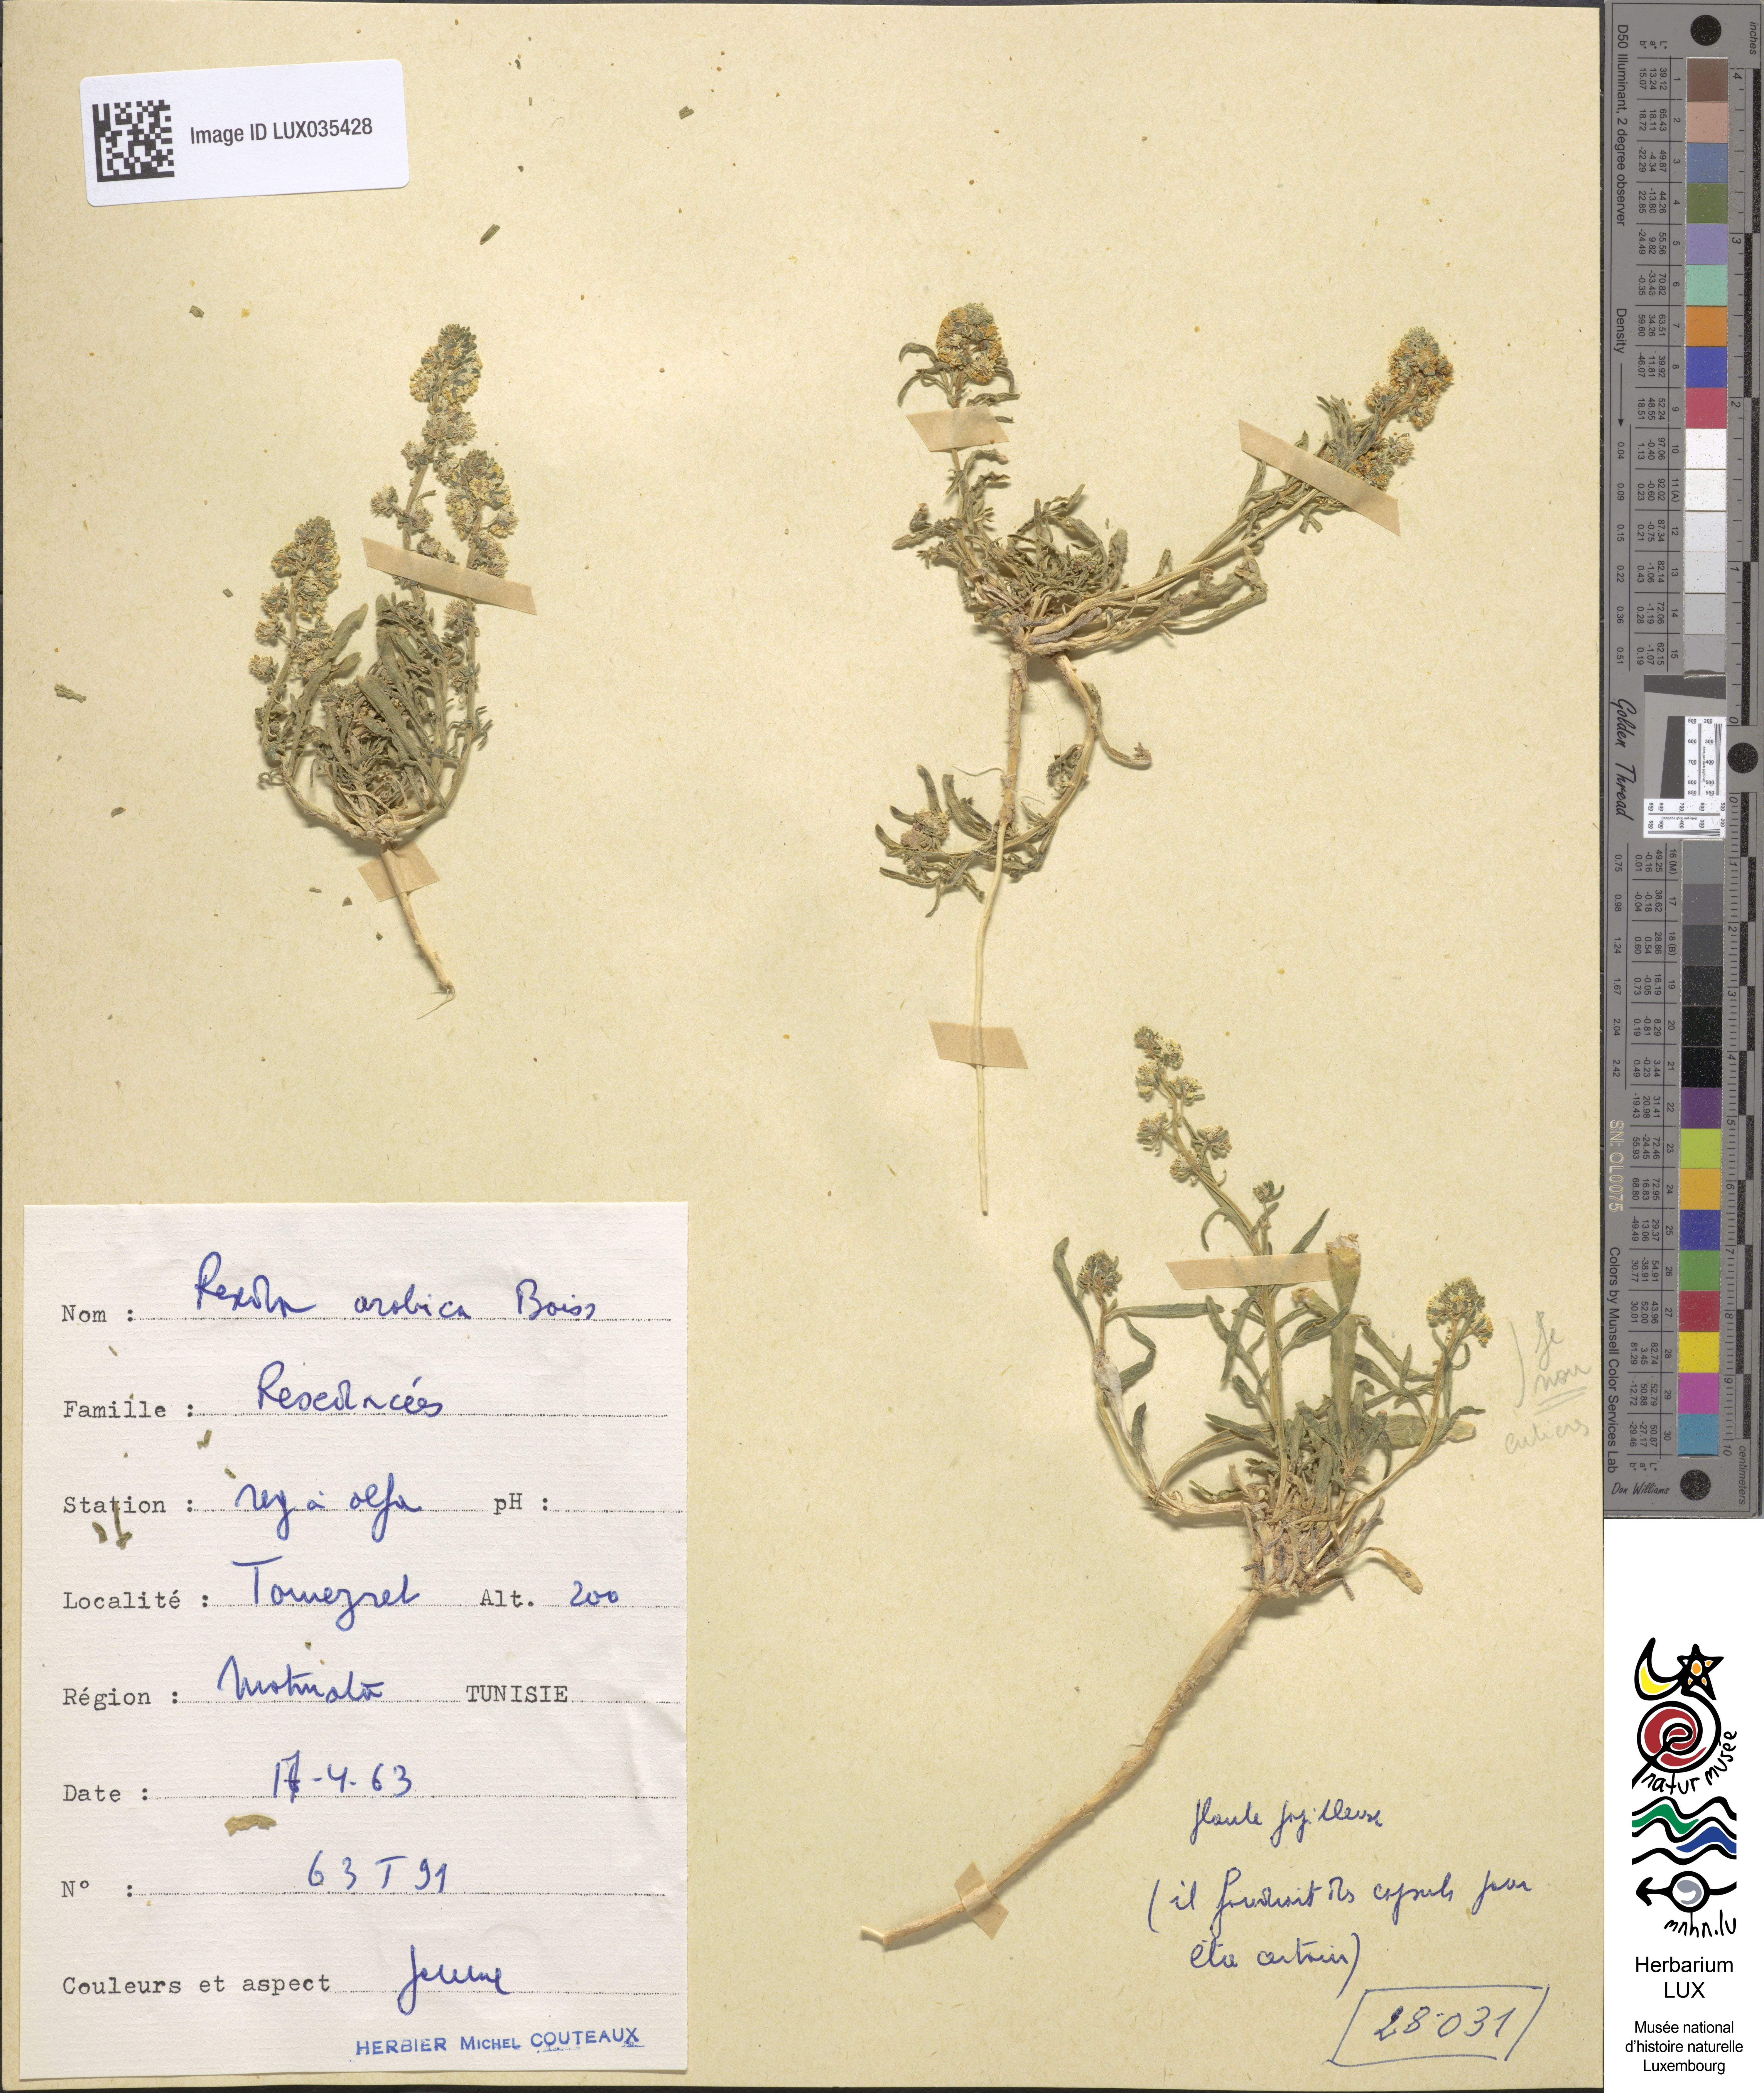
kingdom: Plantae
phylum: Tracheophyta
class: Magnoliopsida
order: Brassicales
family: Resedaceae
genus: Reseda
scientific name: Reseda arabica
